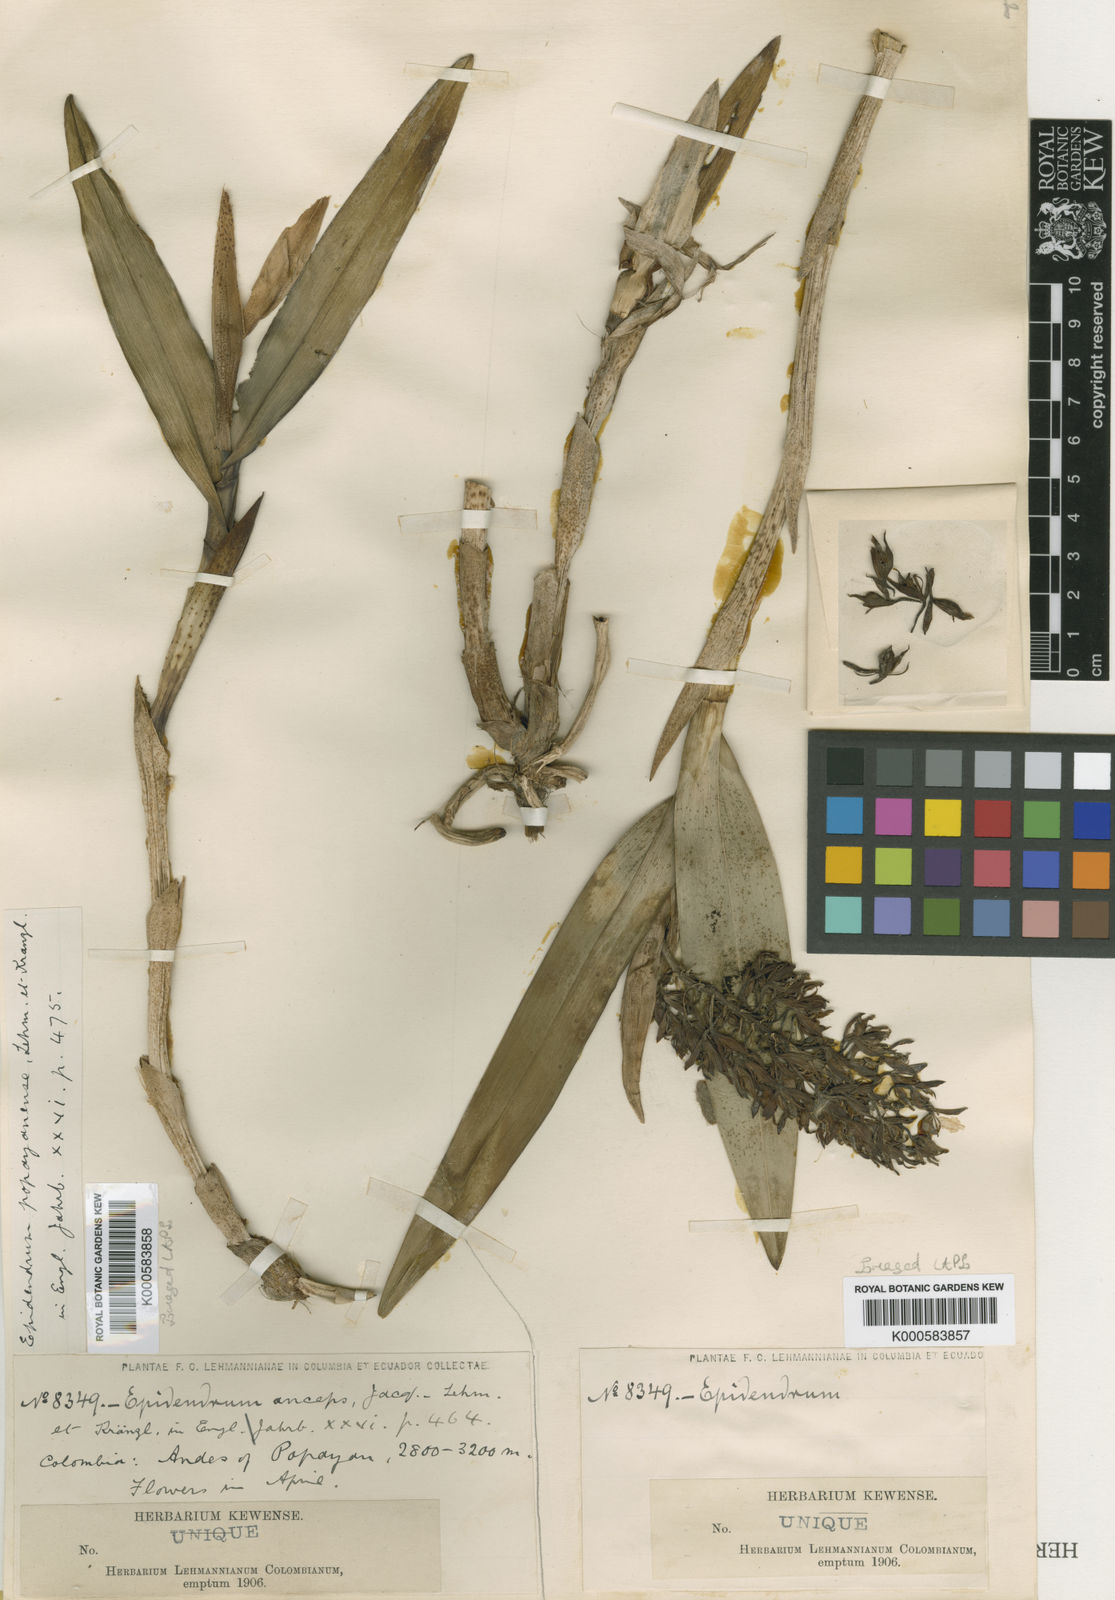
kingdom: Plantae
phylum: Tracheophyta
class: Liliopsida
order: Asparagales
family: Orchidaceae
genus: Epidendrum
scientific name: Epidendrum popayanense
